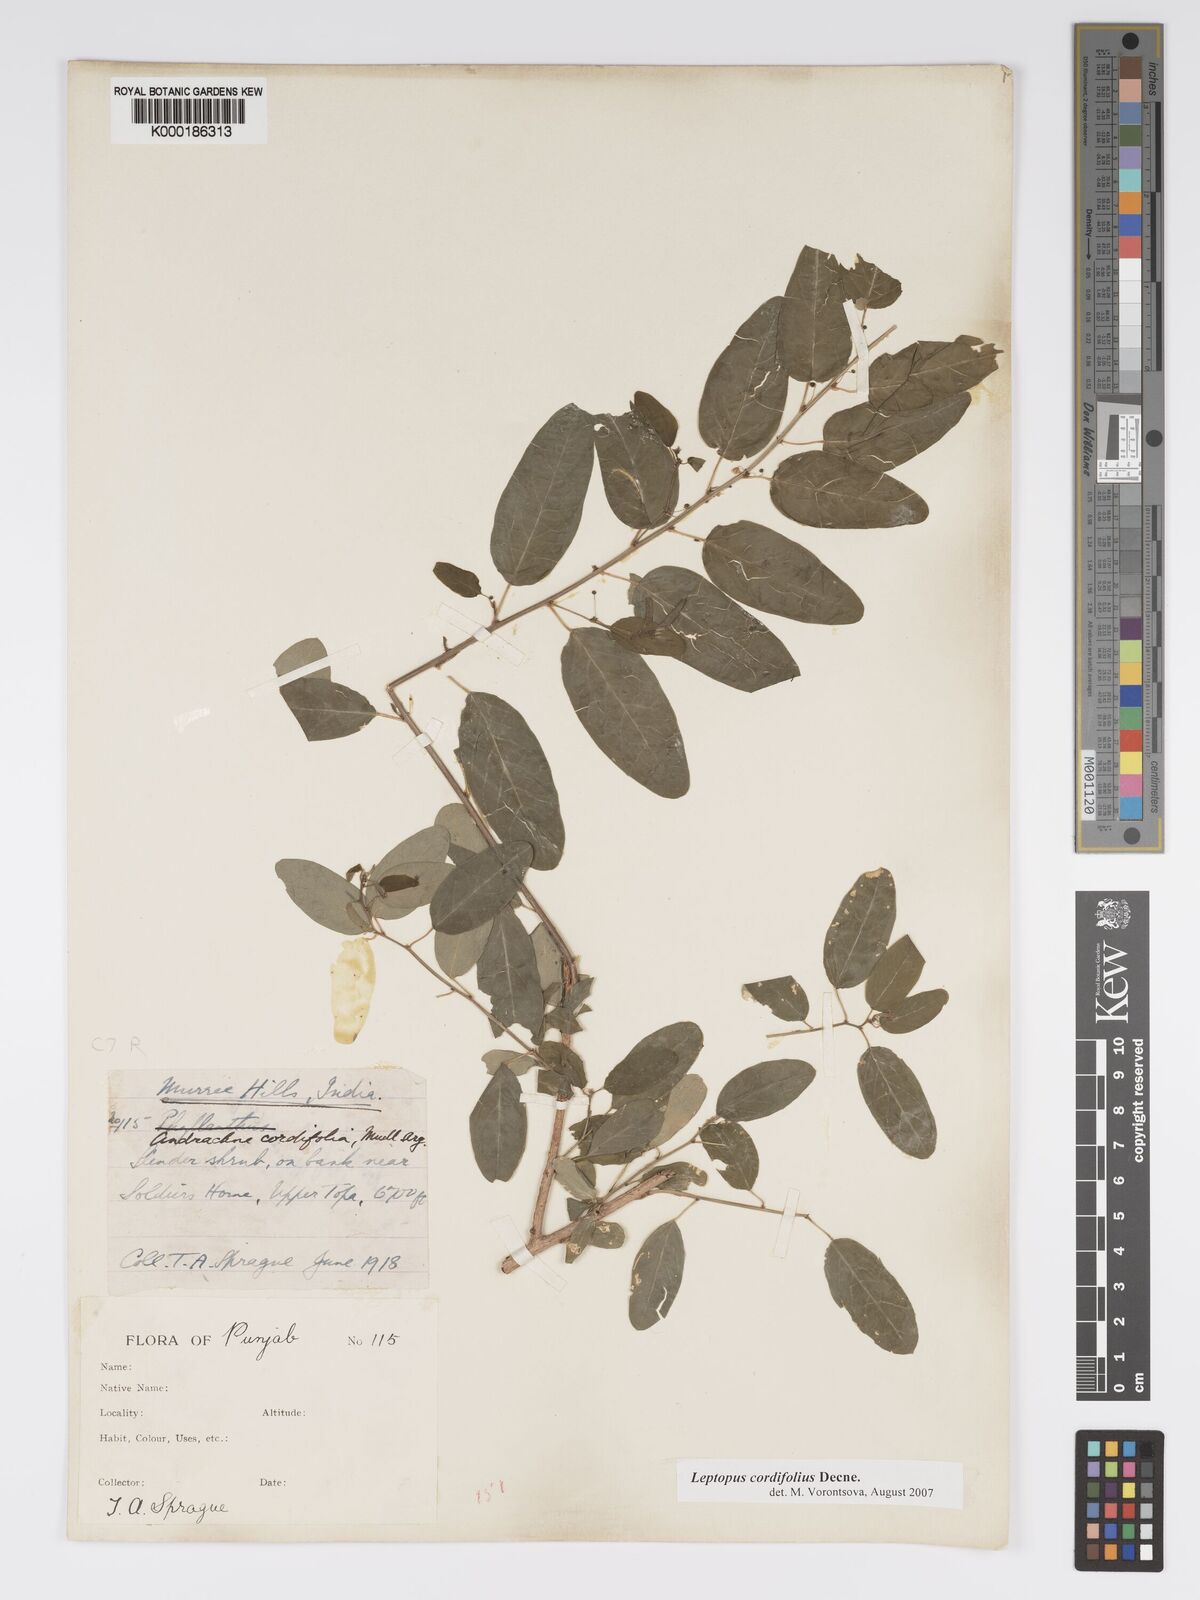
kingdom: Plantae
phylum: Tracheophyta
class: Magnoliopsida
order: Malpighiales
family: Phyllanthaceae
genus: Leptopus
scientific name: Leptopus cordifolius
